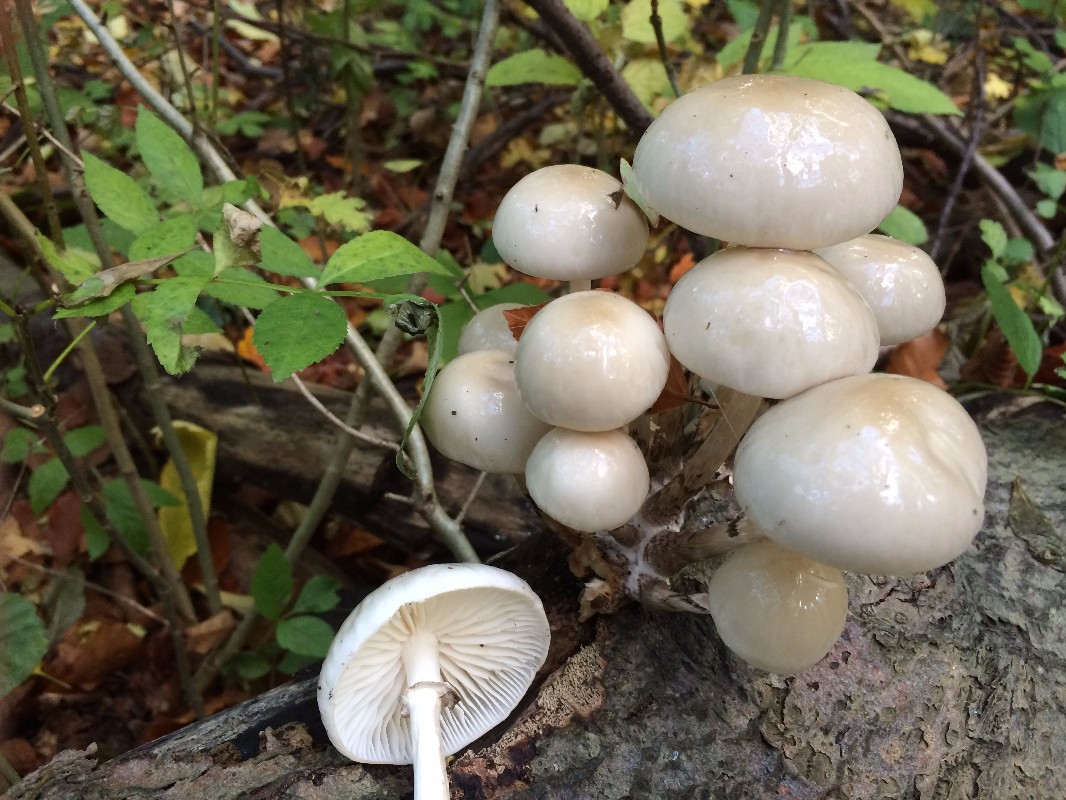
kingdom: Fungi
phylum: Basidiomycota
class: Agaricomycetes
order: Agaricales
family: Physalacriaceae
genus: Mucidula
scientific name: Mucidula mucida
